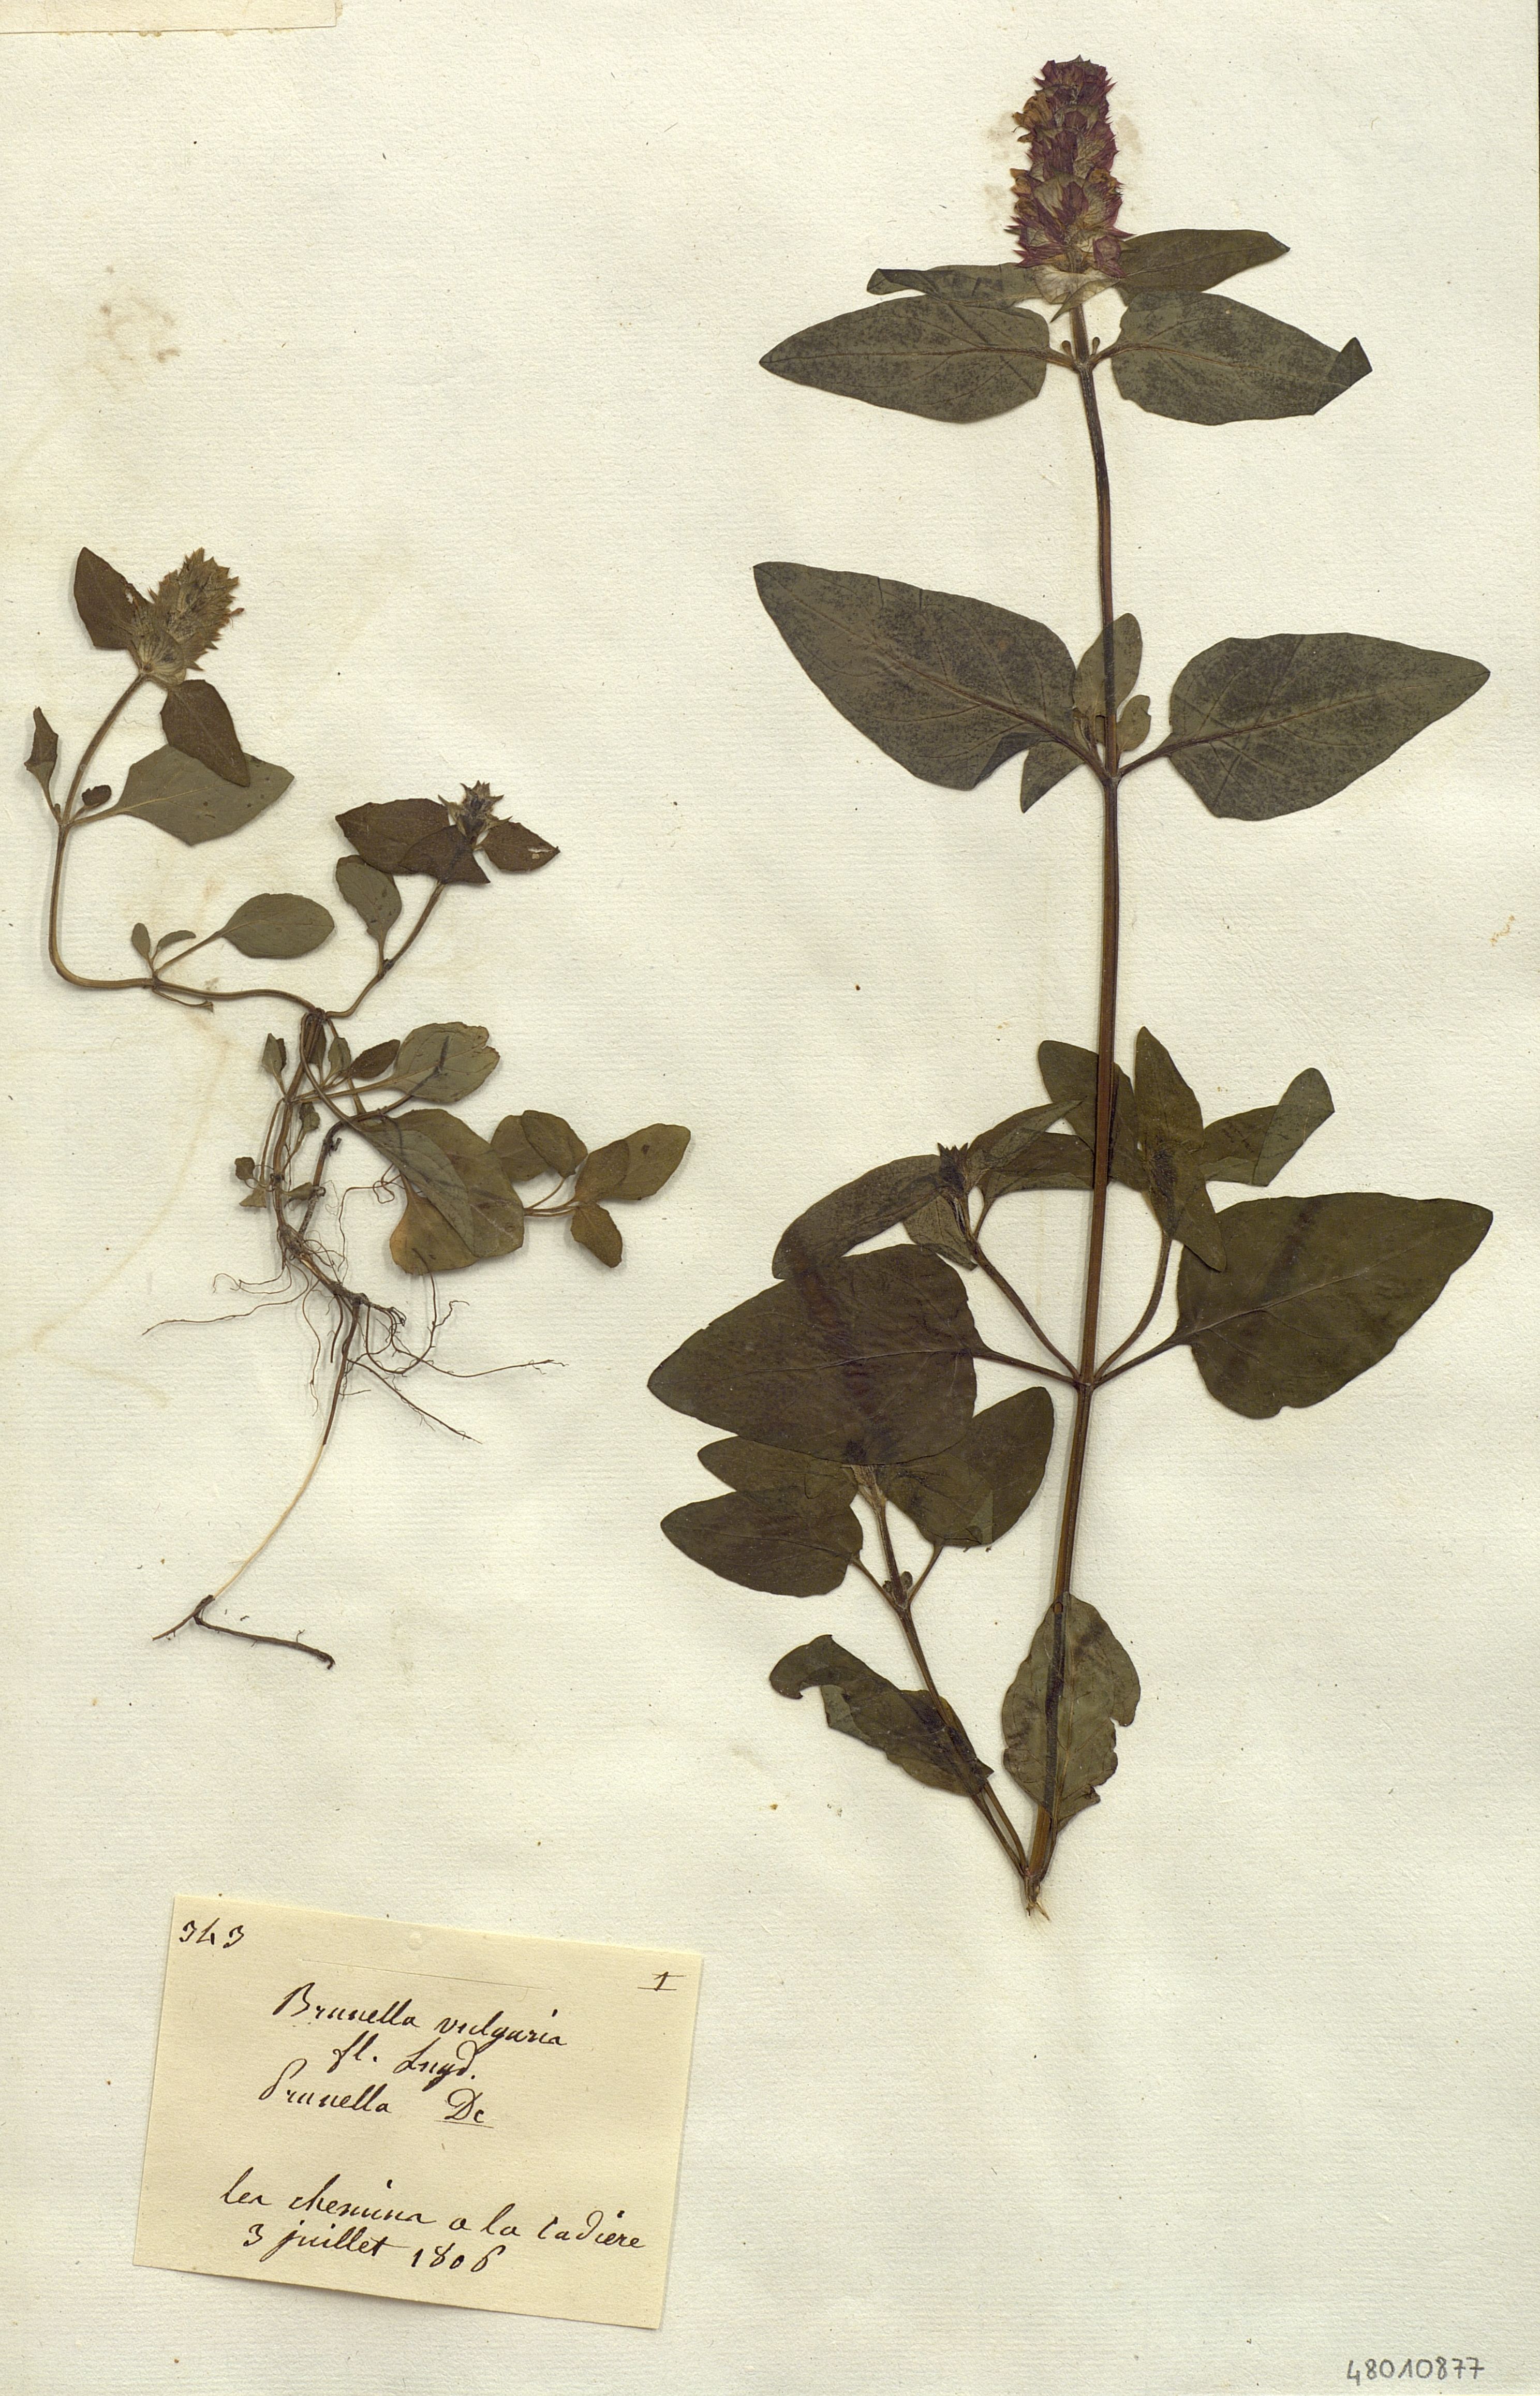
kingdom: Plantae
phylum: Tracheophyta
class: Magnoliopsida
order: Lamiales
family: Lamiaceae
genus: Prunella
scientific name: Prunella vulgaris
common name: Heal-all
